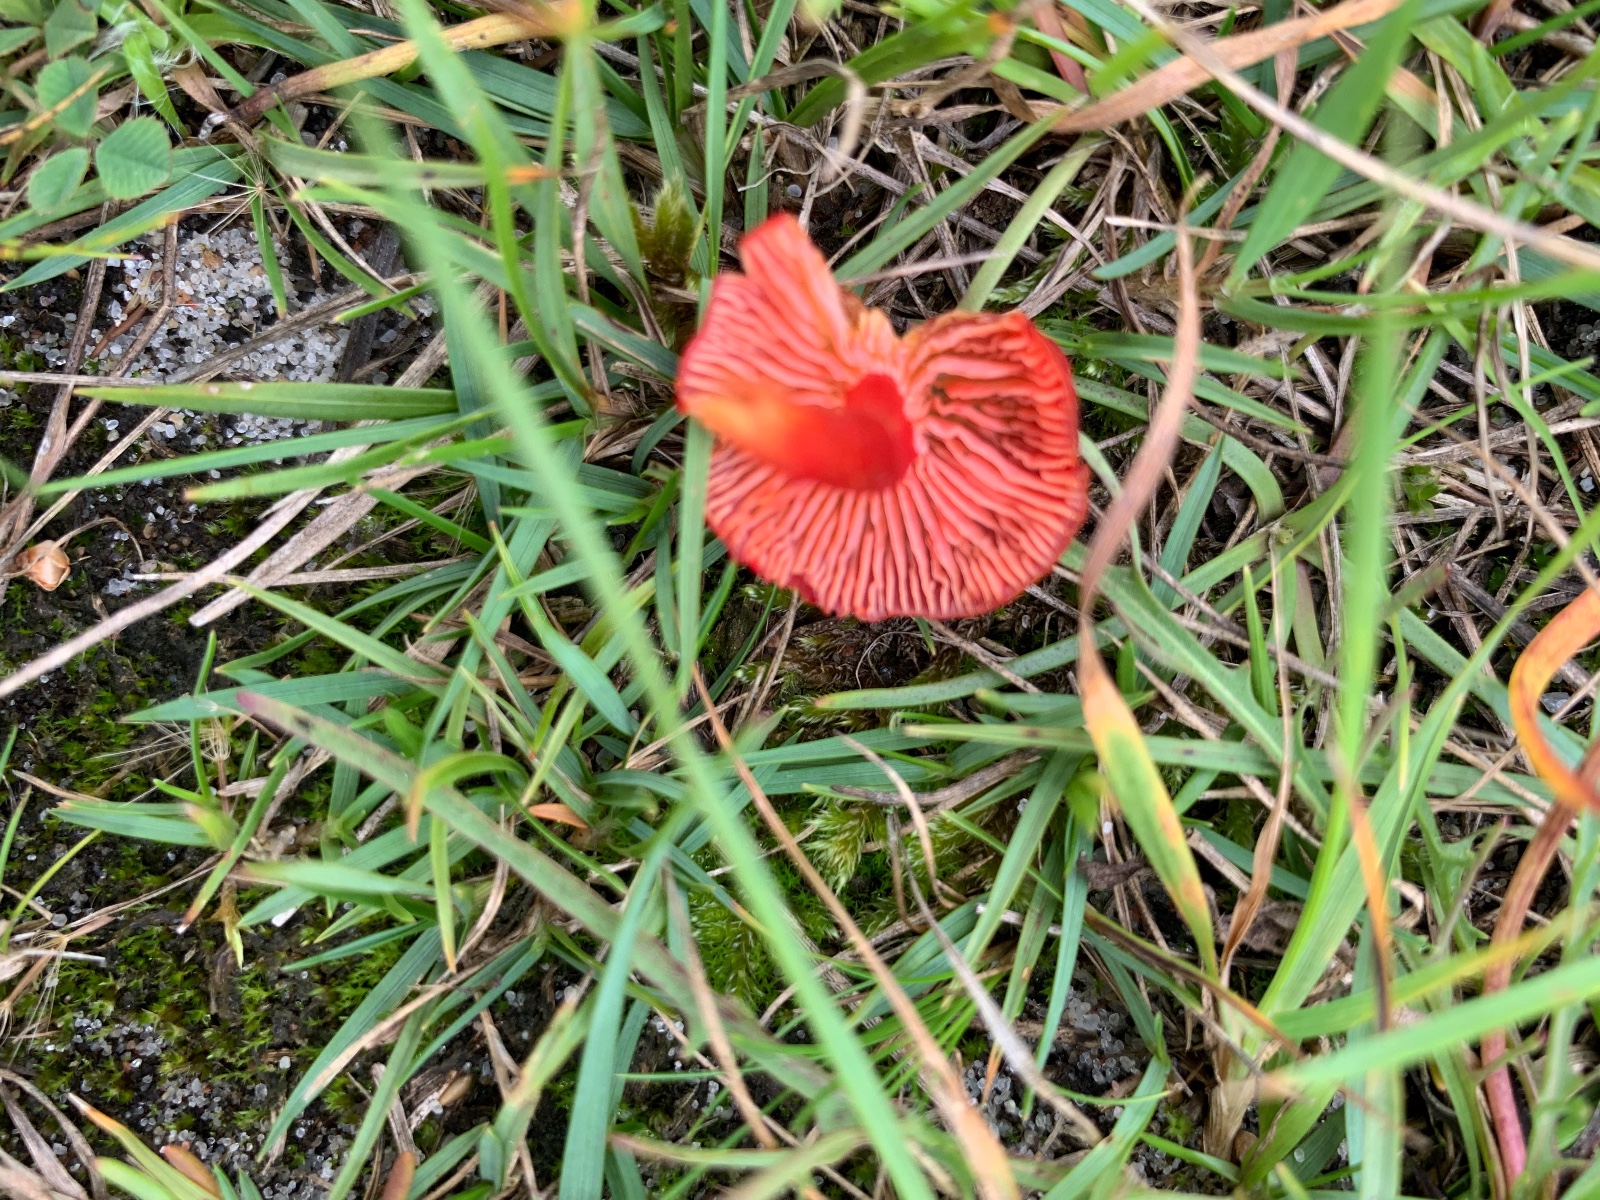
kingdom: Fungi
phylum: Basidiomycota
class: Agaricomycetes
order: Agaricales
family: Hygrophoraceae
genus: Hygrocybe
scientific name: Hygrocybe phaeococcinea
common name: sortdugget vokshat
